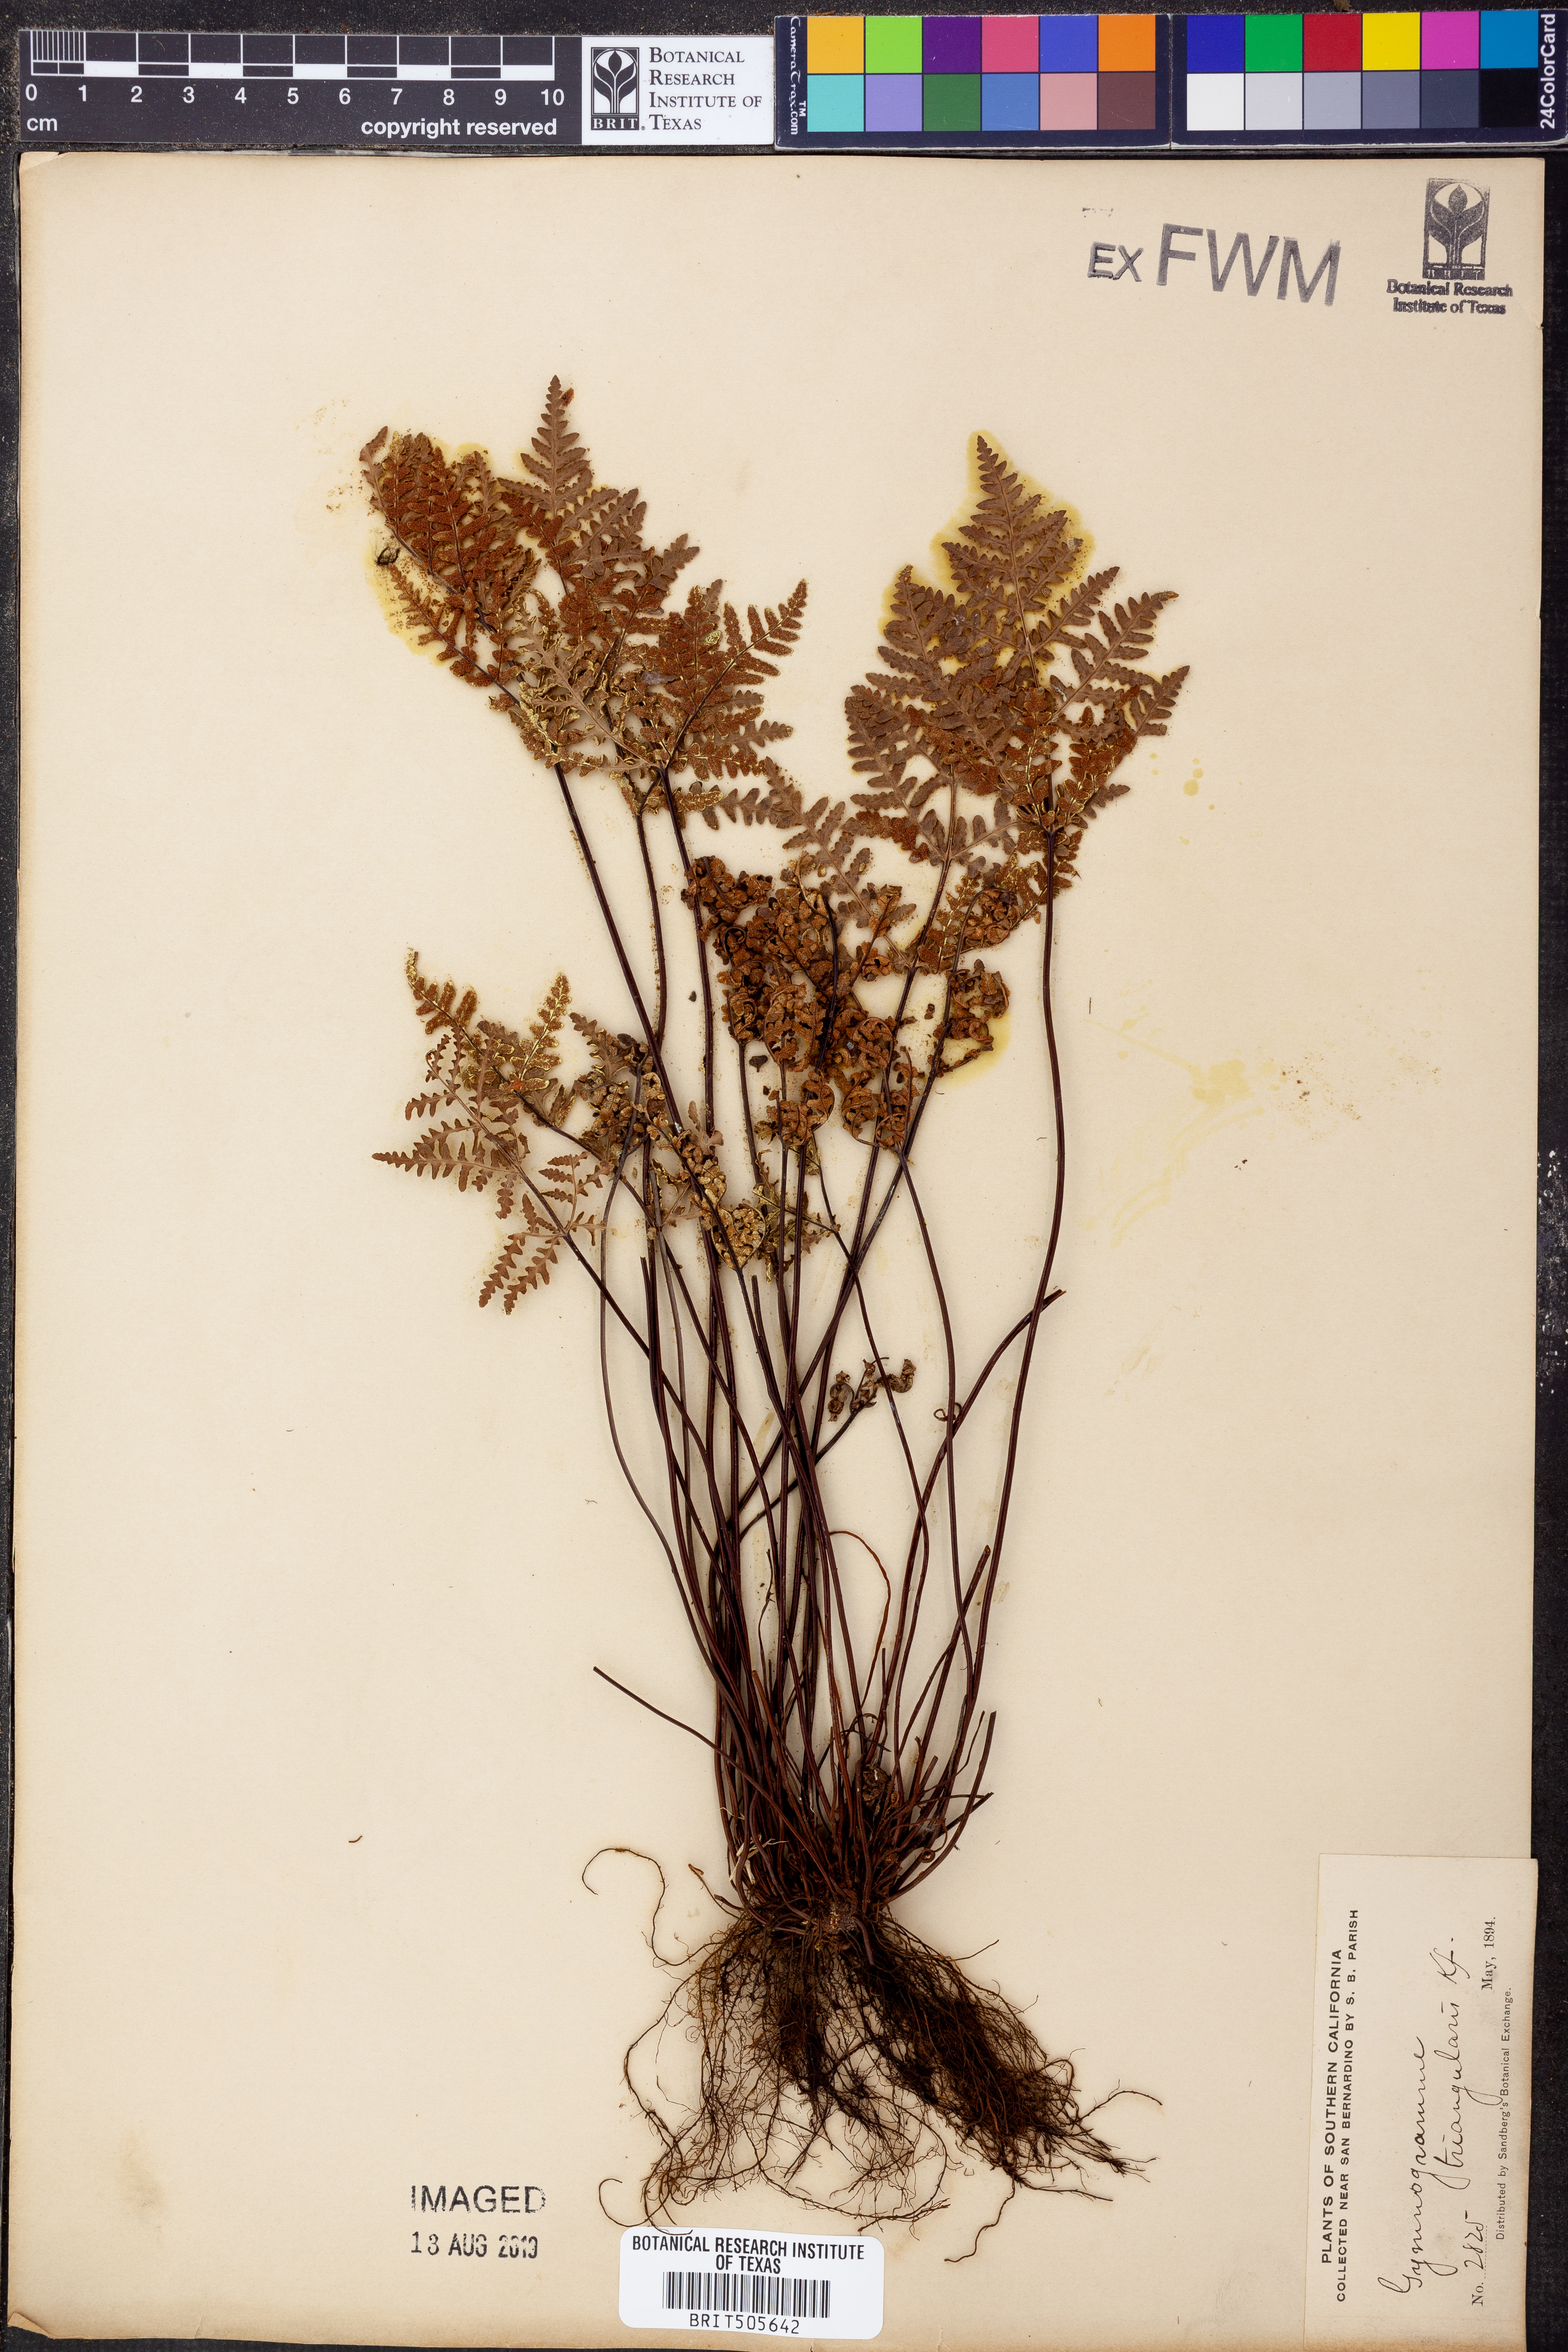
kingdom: Plantae
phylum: Tracheophyta
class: Polypodiopsida
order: Polypodiales
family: Pteridaceae
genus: Pentagramma
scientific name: Pentagramma triangularis
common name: Gold fern
